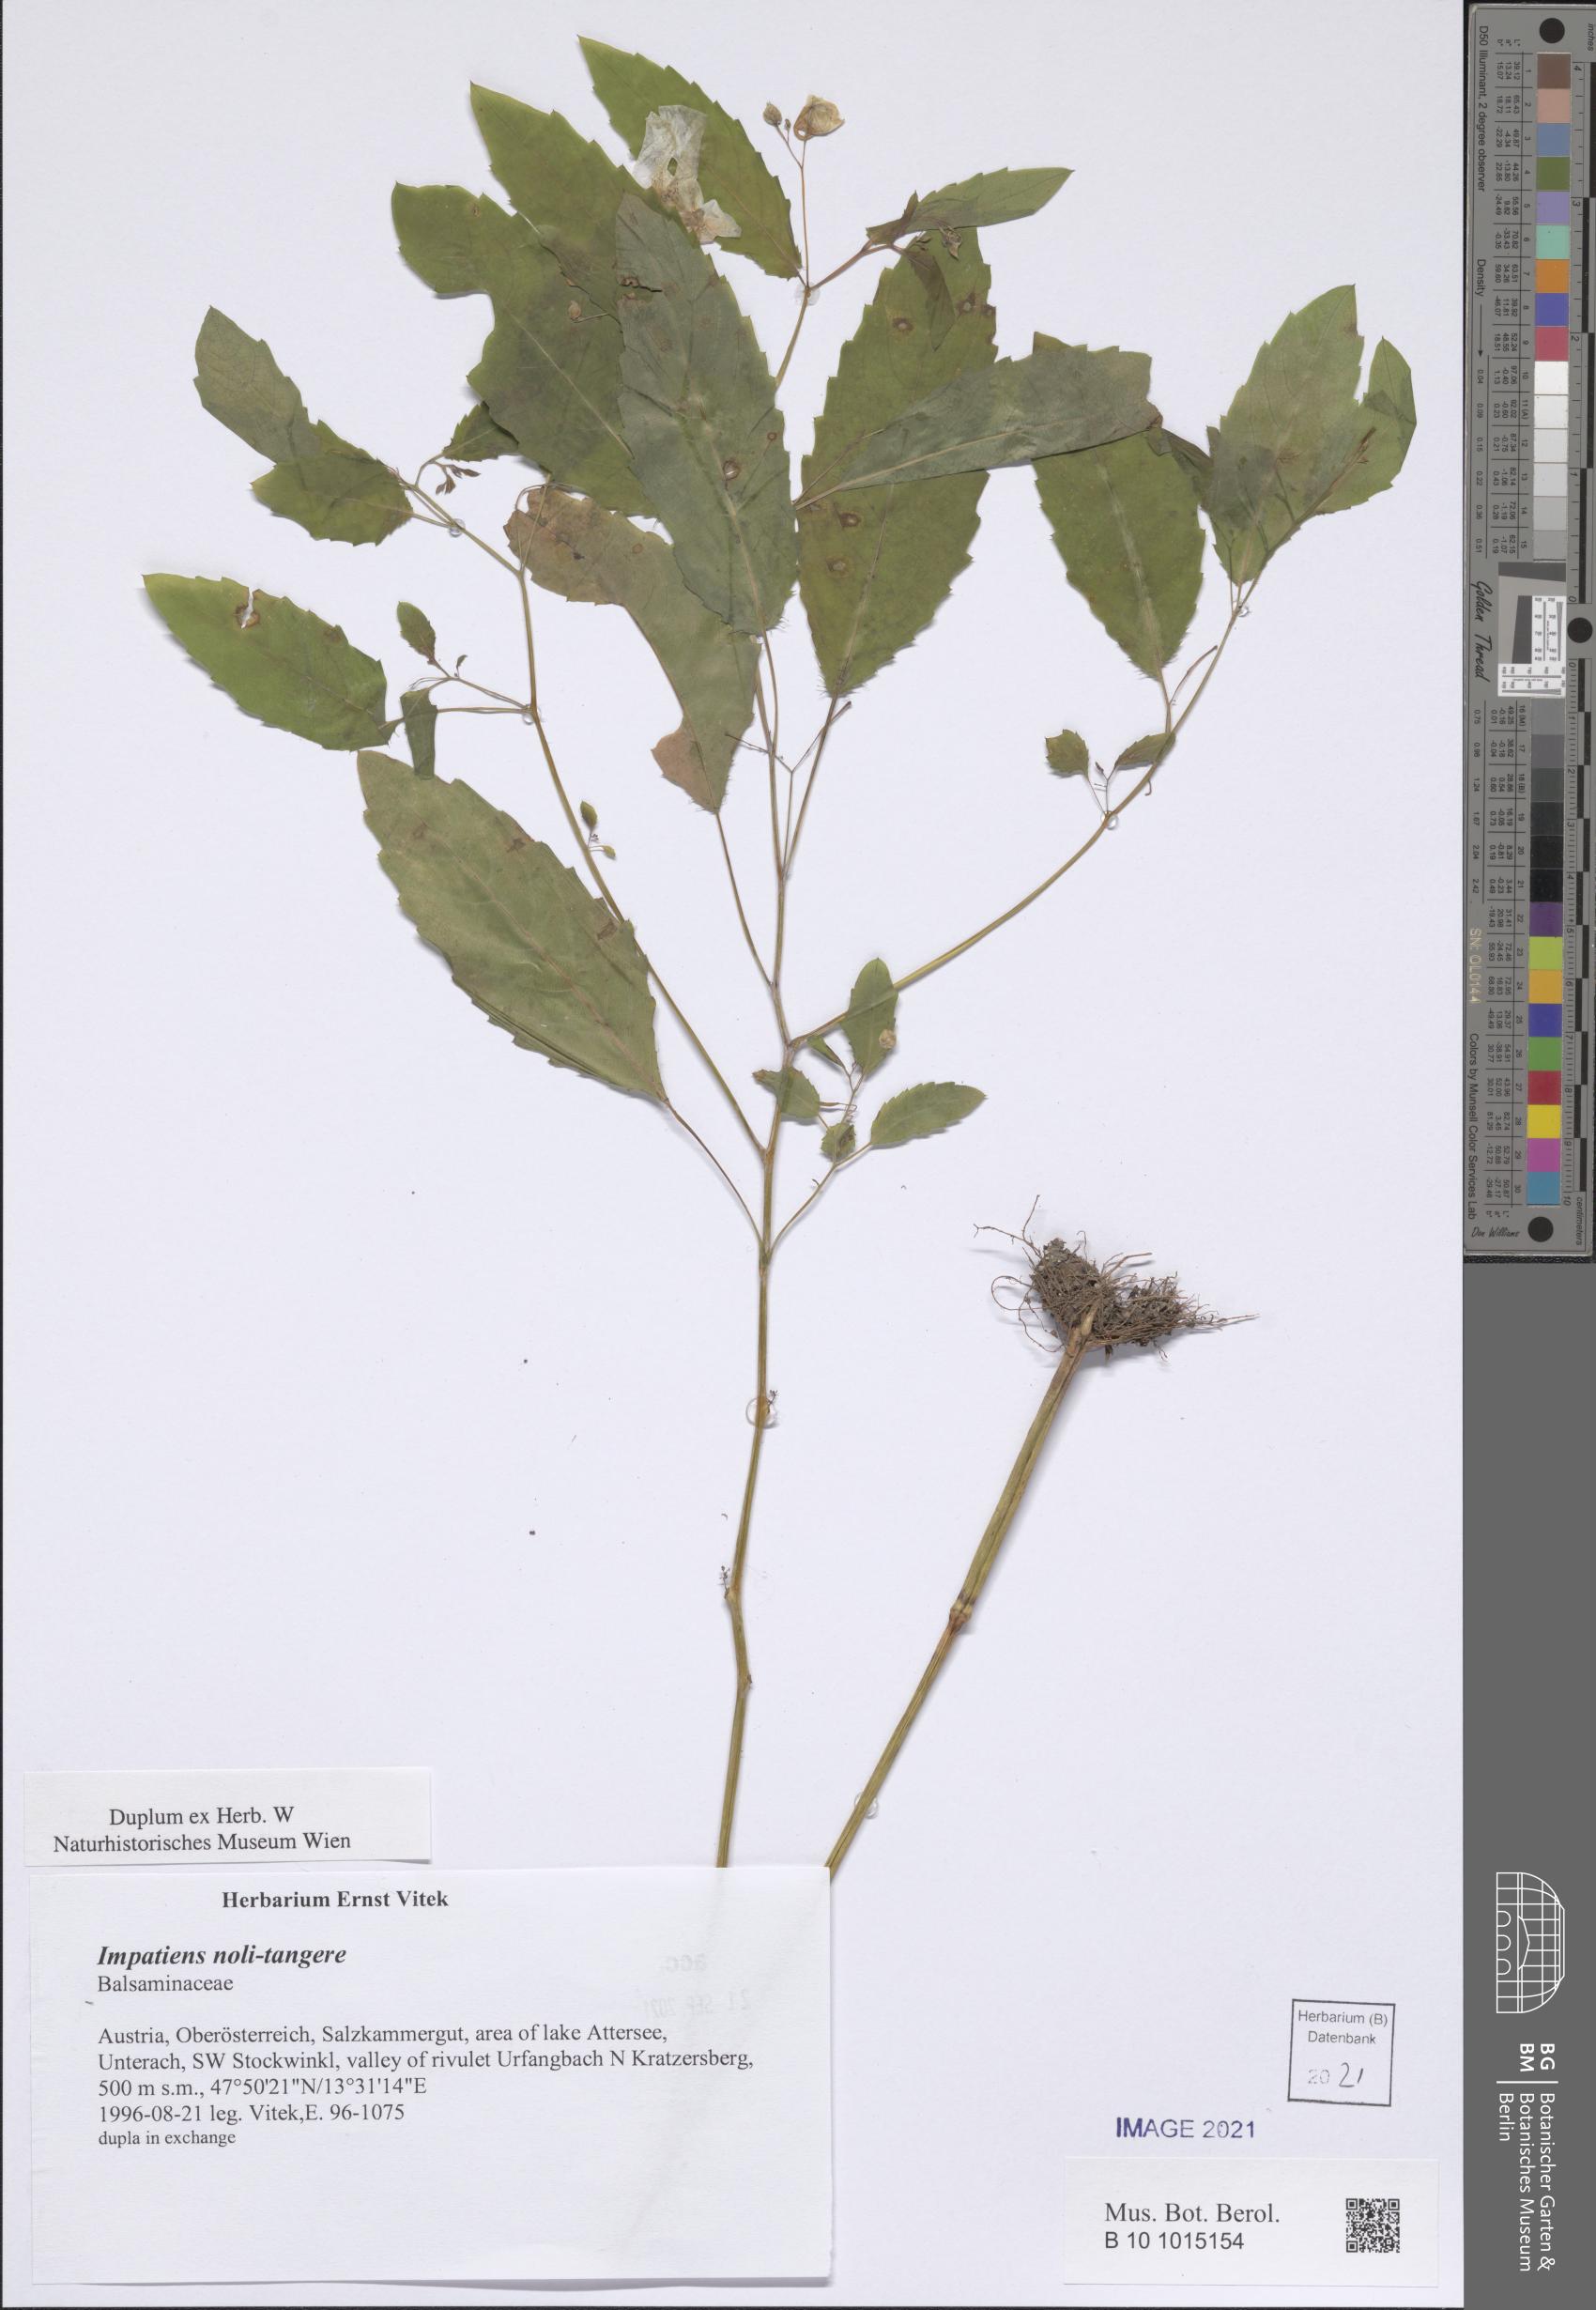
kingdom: Plantae
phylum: Tracheophyta
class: Magnoliopsida
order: Ericales
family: Balsaminaceae
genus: Impatiens
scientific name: Impatiens noli-tangere
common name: Touch-me-not balsam
